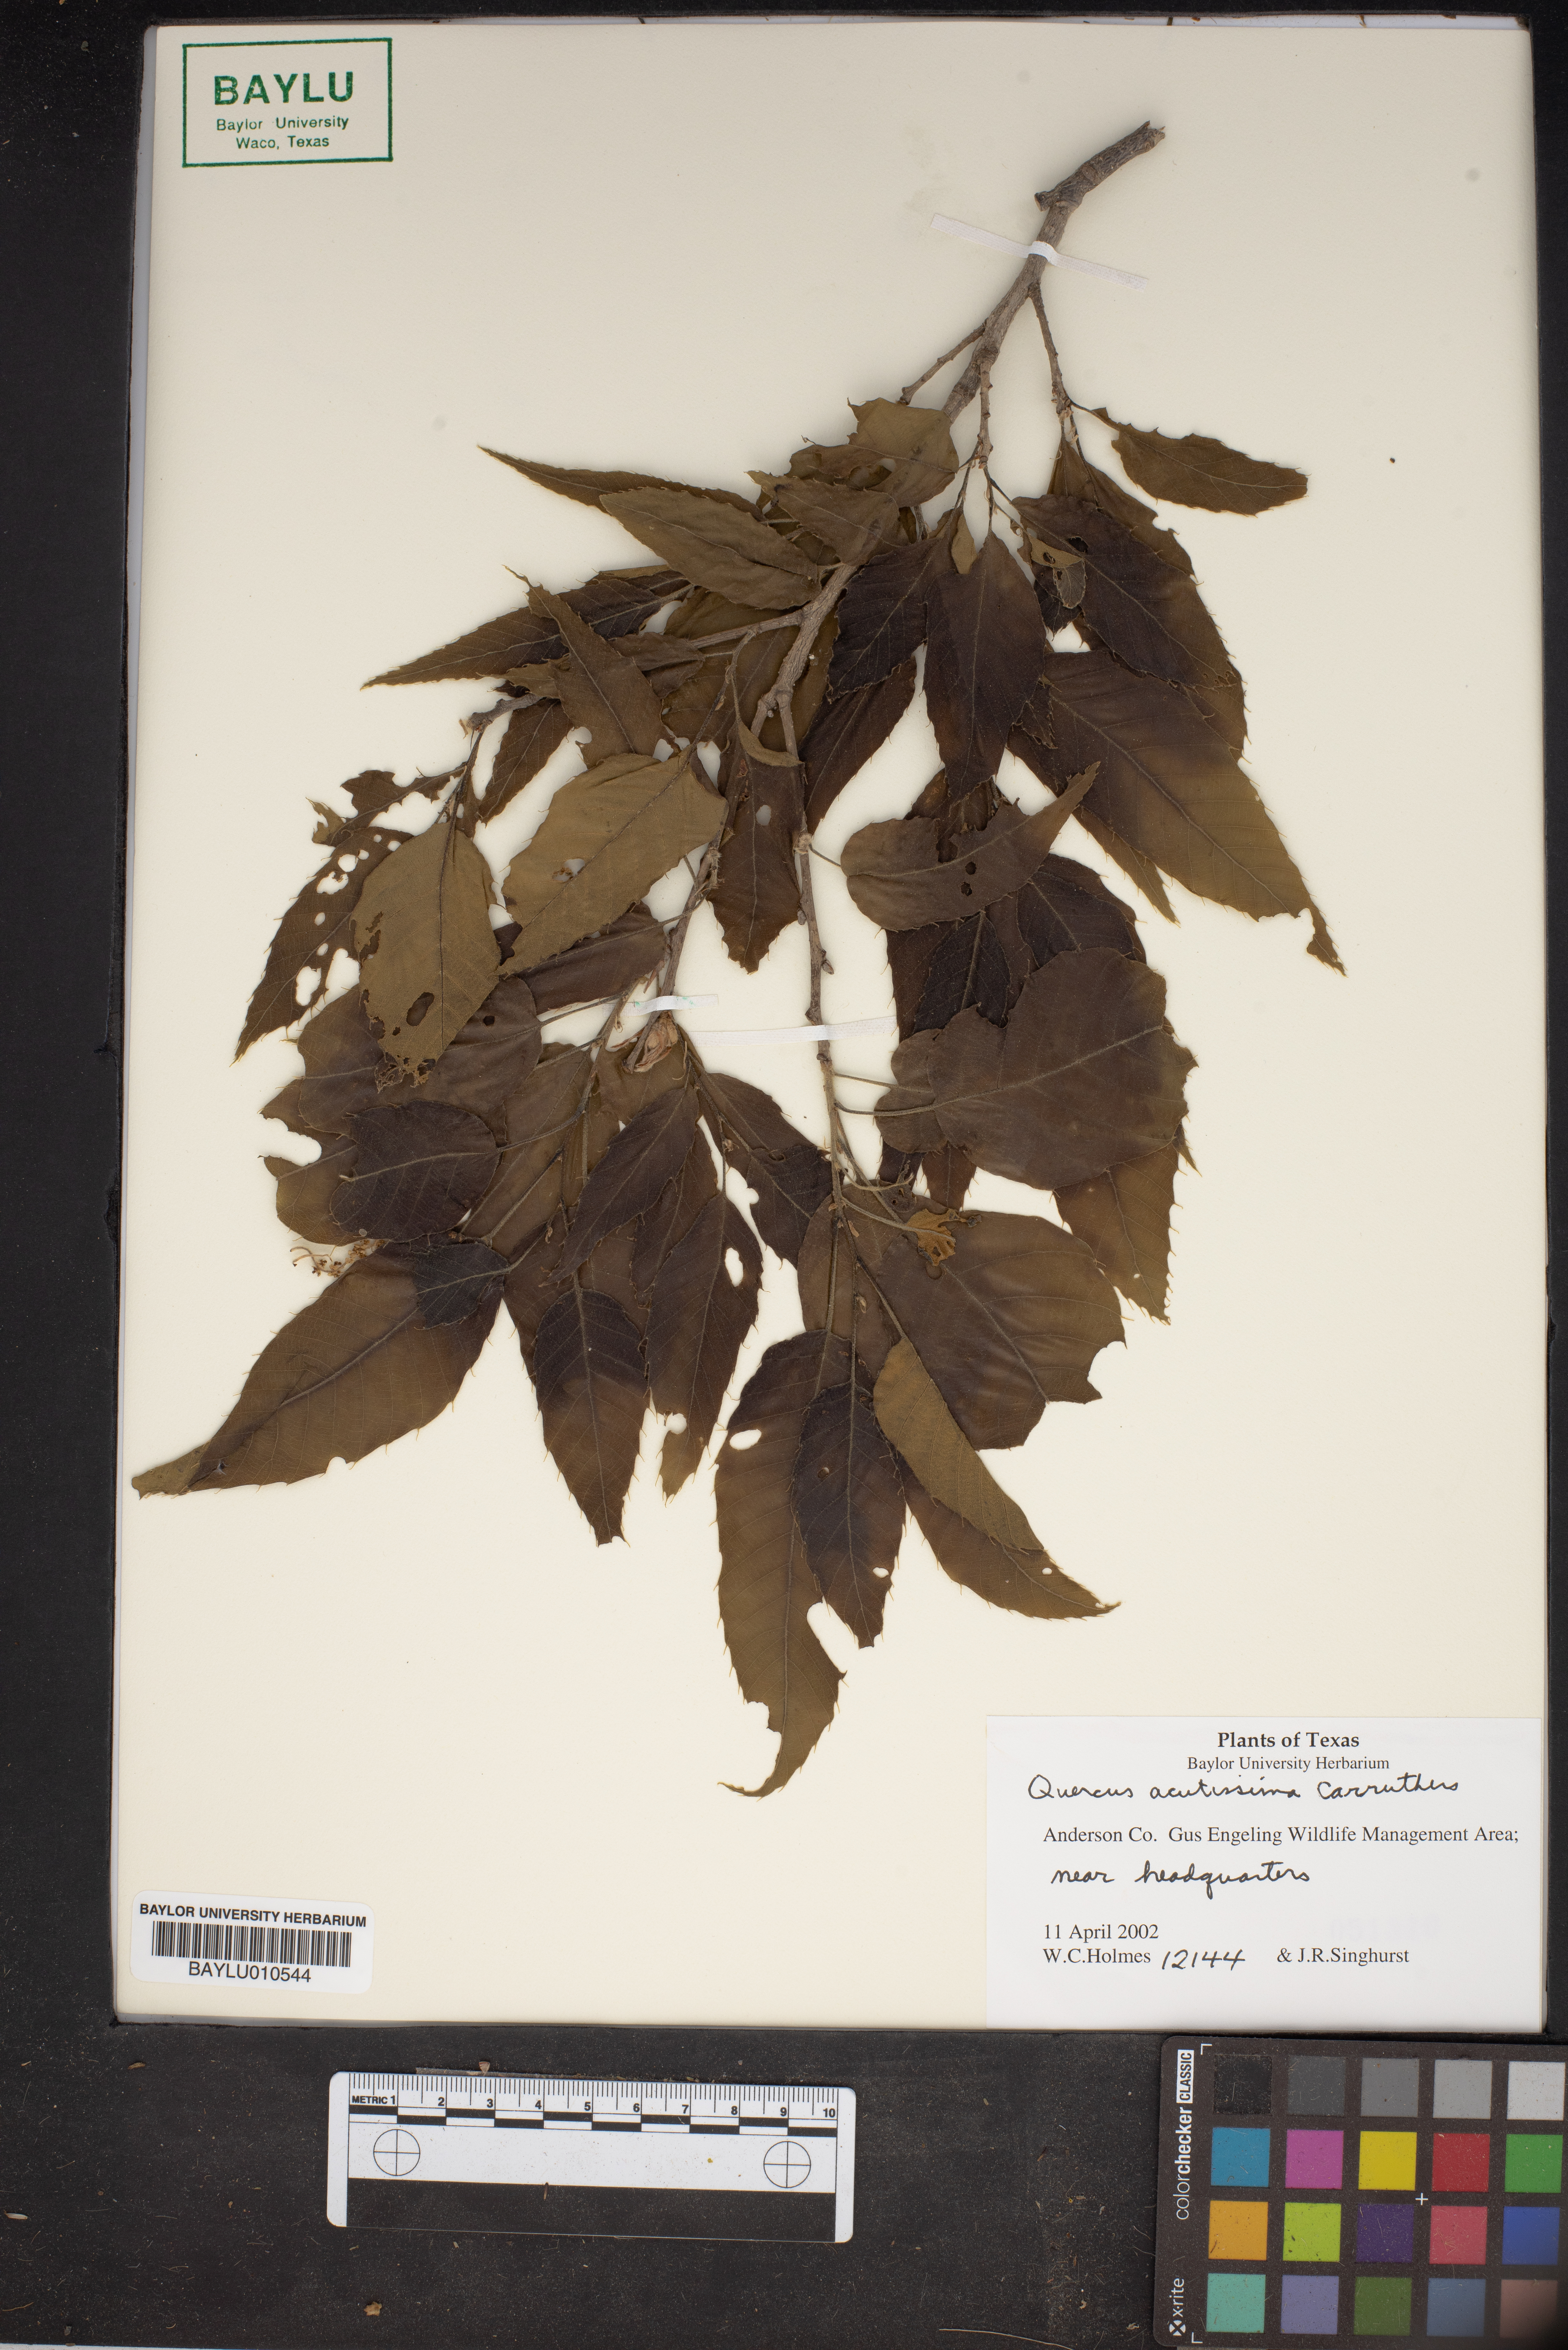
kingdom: Plantae
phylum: Tracheophyta
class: Magnoliopsida
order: Fagales
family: Fagaceae
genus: Quercus
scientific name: Quercus acutissima
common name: Sawtooth oak
